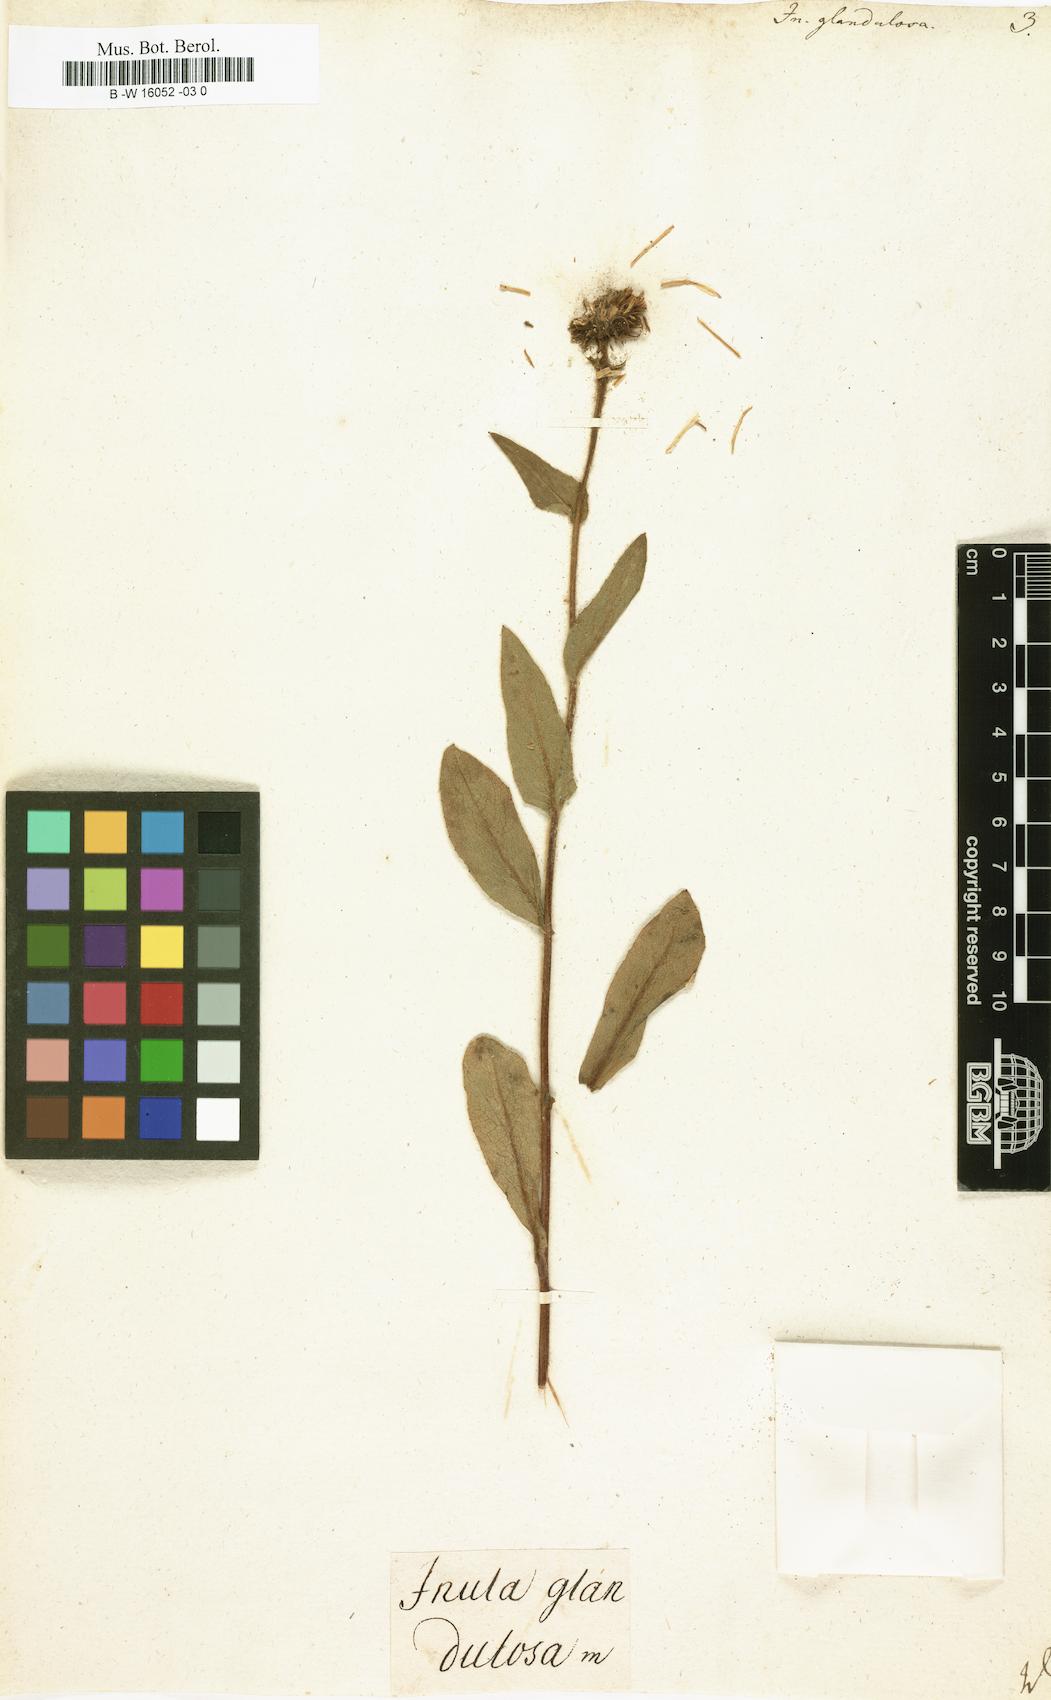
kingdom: Plantae
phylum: Tracheophyta
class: Magnoliopsida
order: Asterales
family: Asteraceae
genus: Chrysopsis
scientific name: Chrysopsis mariana
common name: Maryland golden-aster
